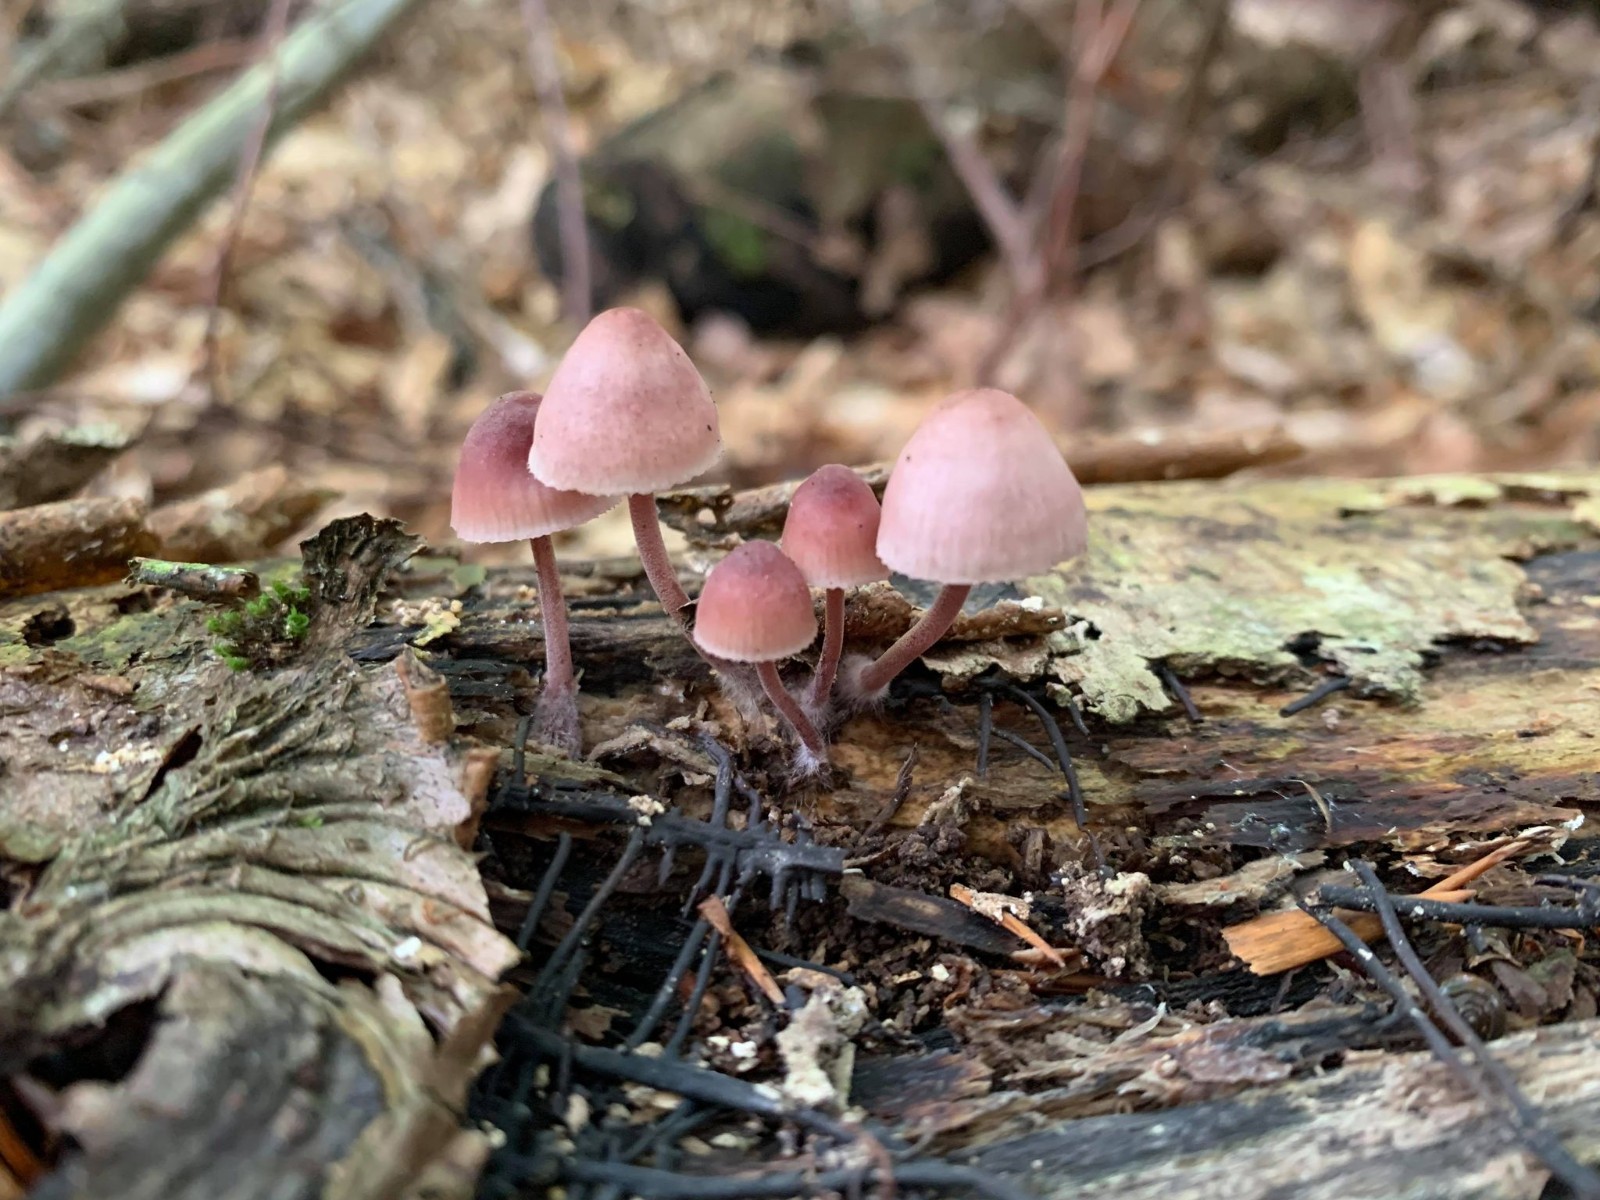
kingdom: Fungi
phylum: Basidiomycota
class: Agaricomycetes
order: Agaricales
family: Mycenaceae
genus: Mycena
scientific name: Mycena haematopus
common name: blødende huesvamp
